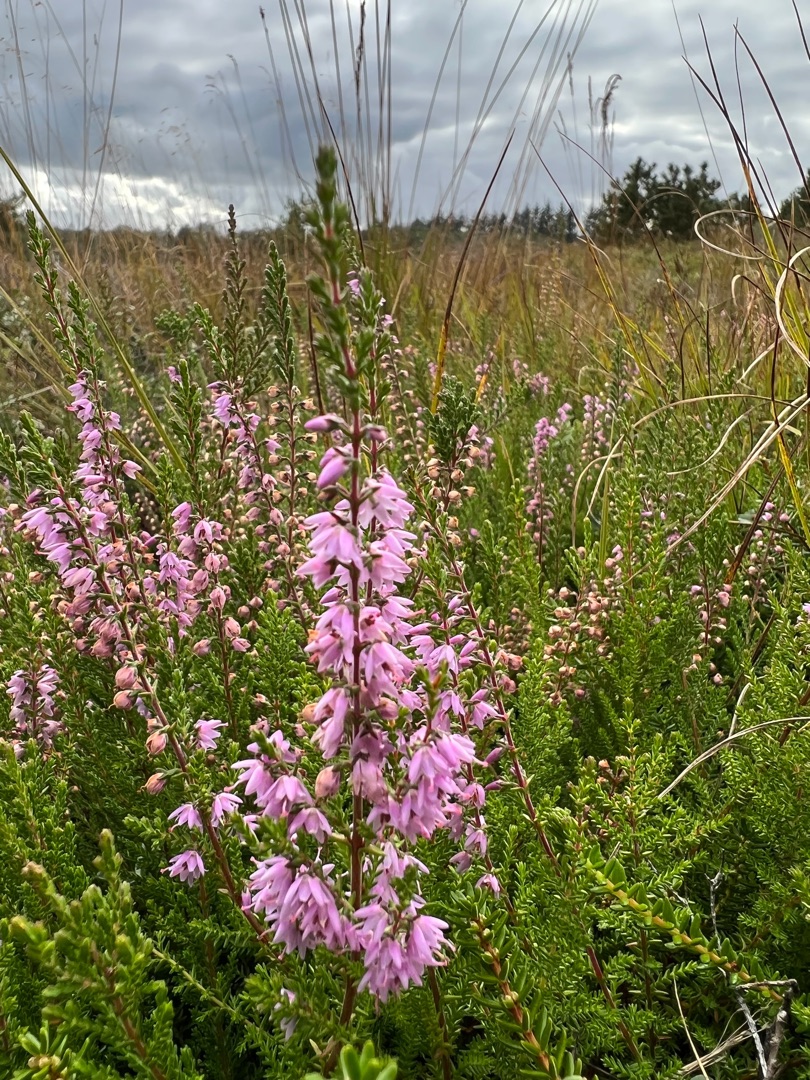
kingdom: Plantae
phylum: Tracheophyta
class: Magnoliopsida
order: Ericales
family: Ericaceae
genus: Calluna
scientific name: Calluna vulgaris
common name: Hedelyng
